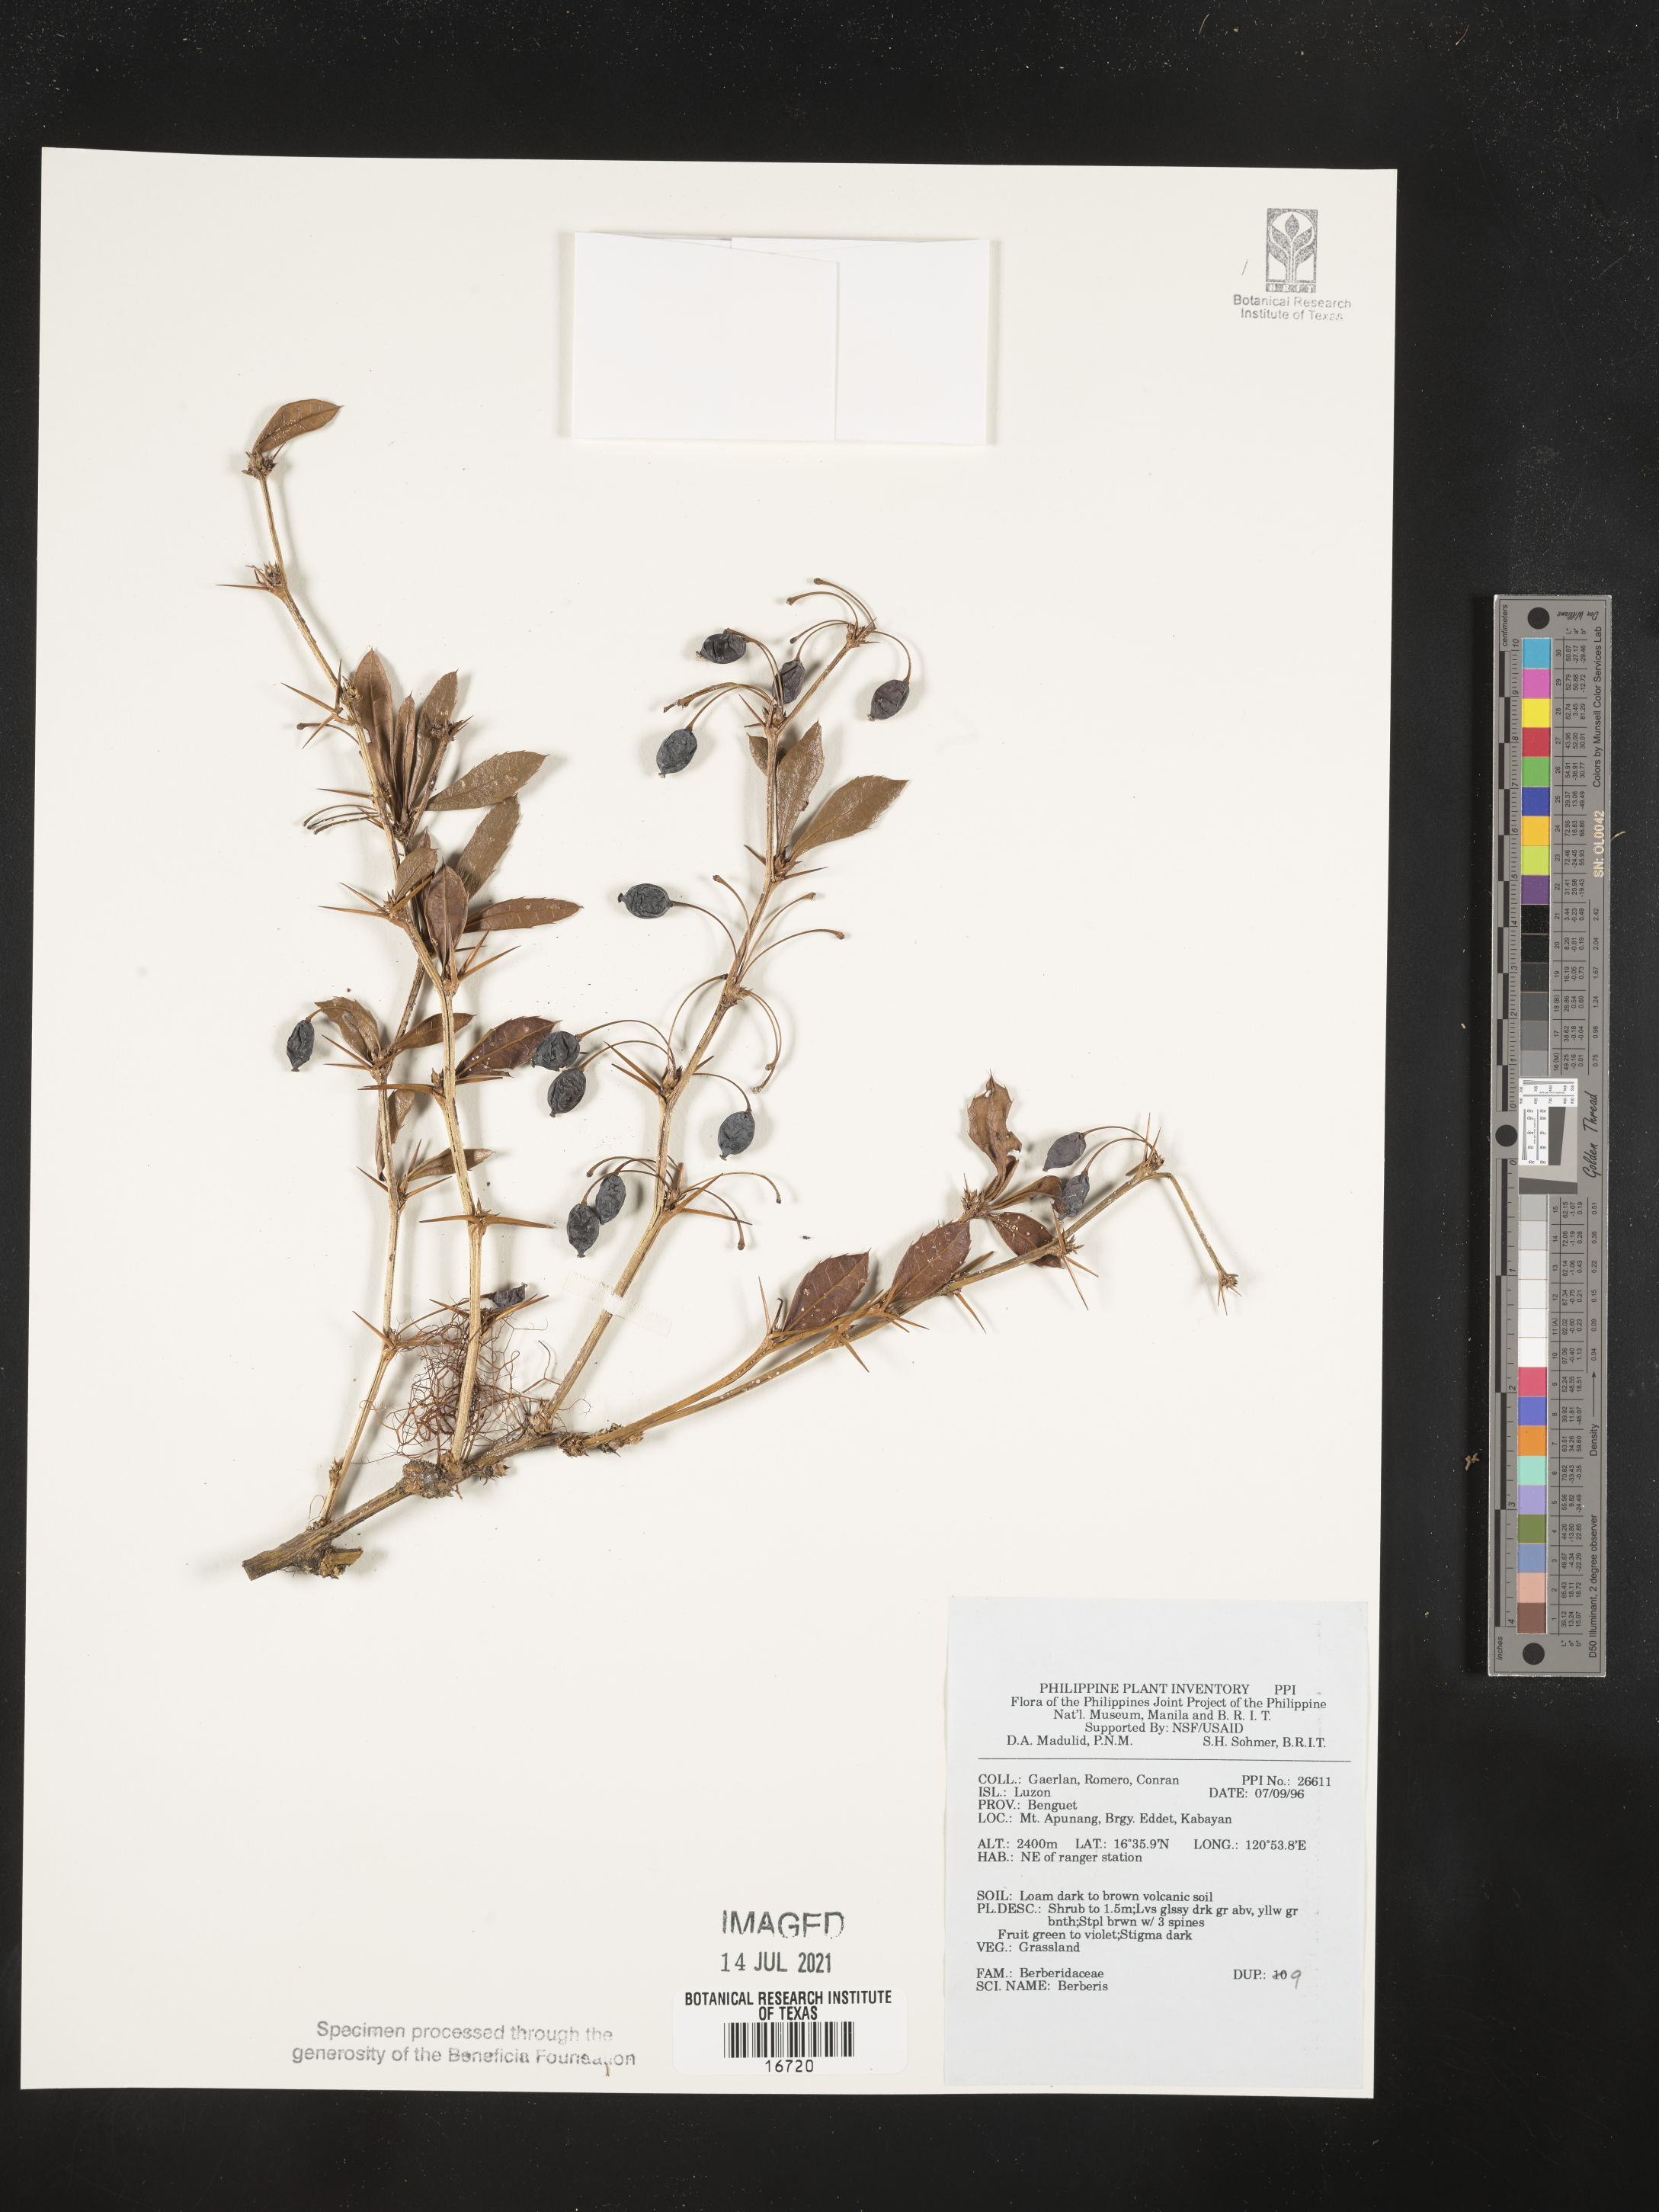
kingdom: Plantae
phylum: Tracheophyta
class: Magnoliopsida
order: Ranunculales
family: Berberidaceae
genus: Berberis
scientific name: Berberis
